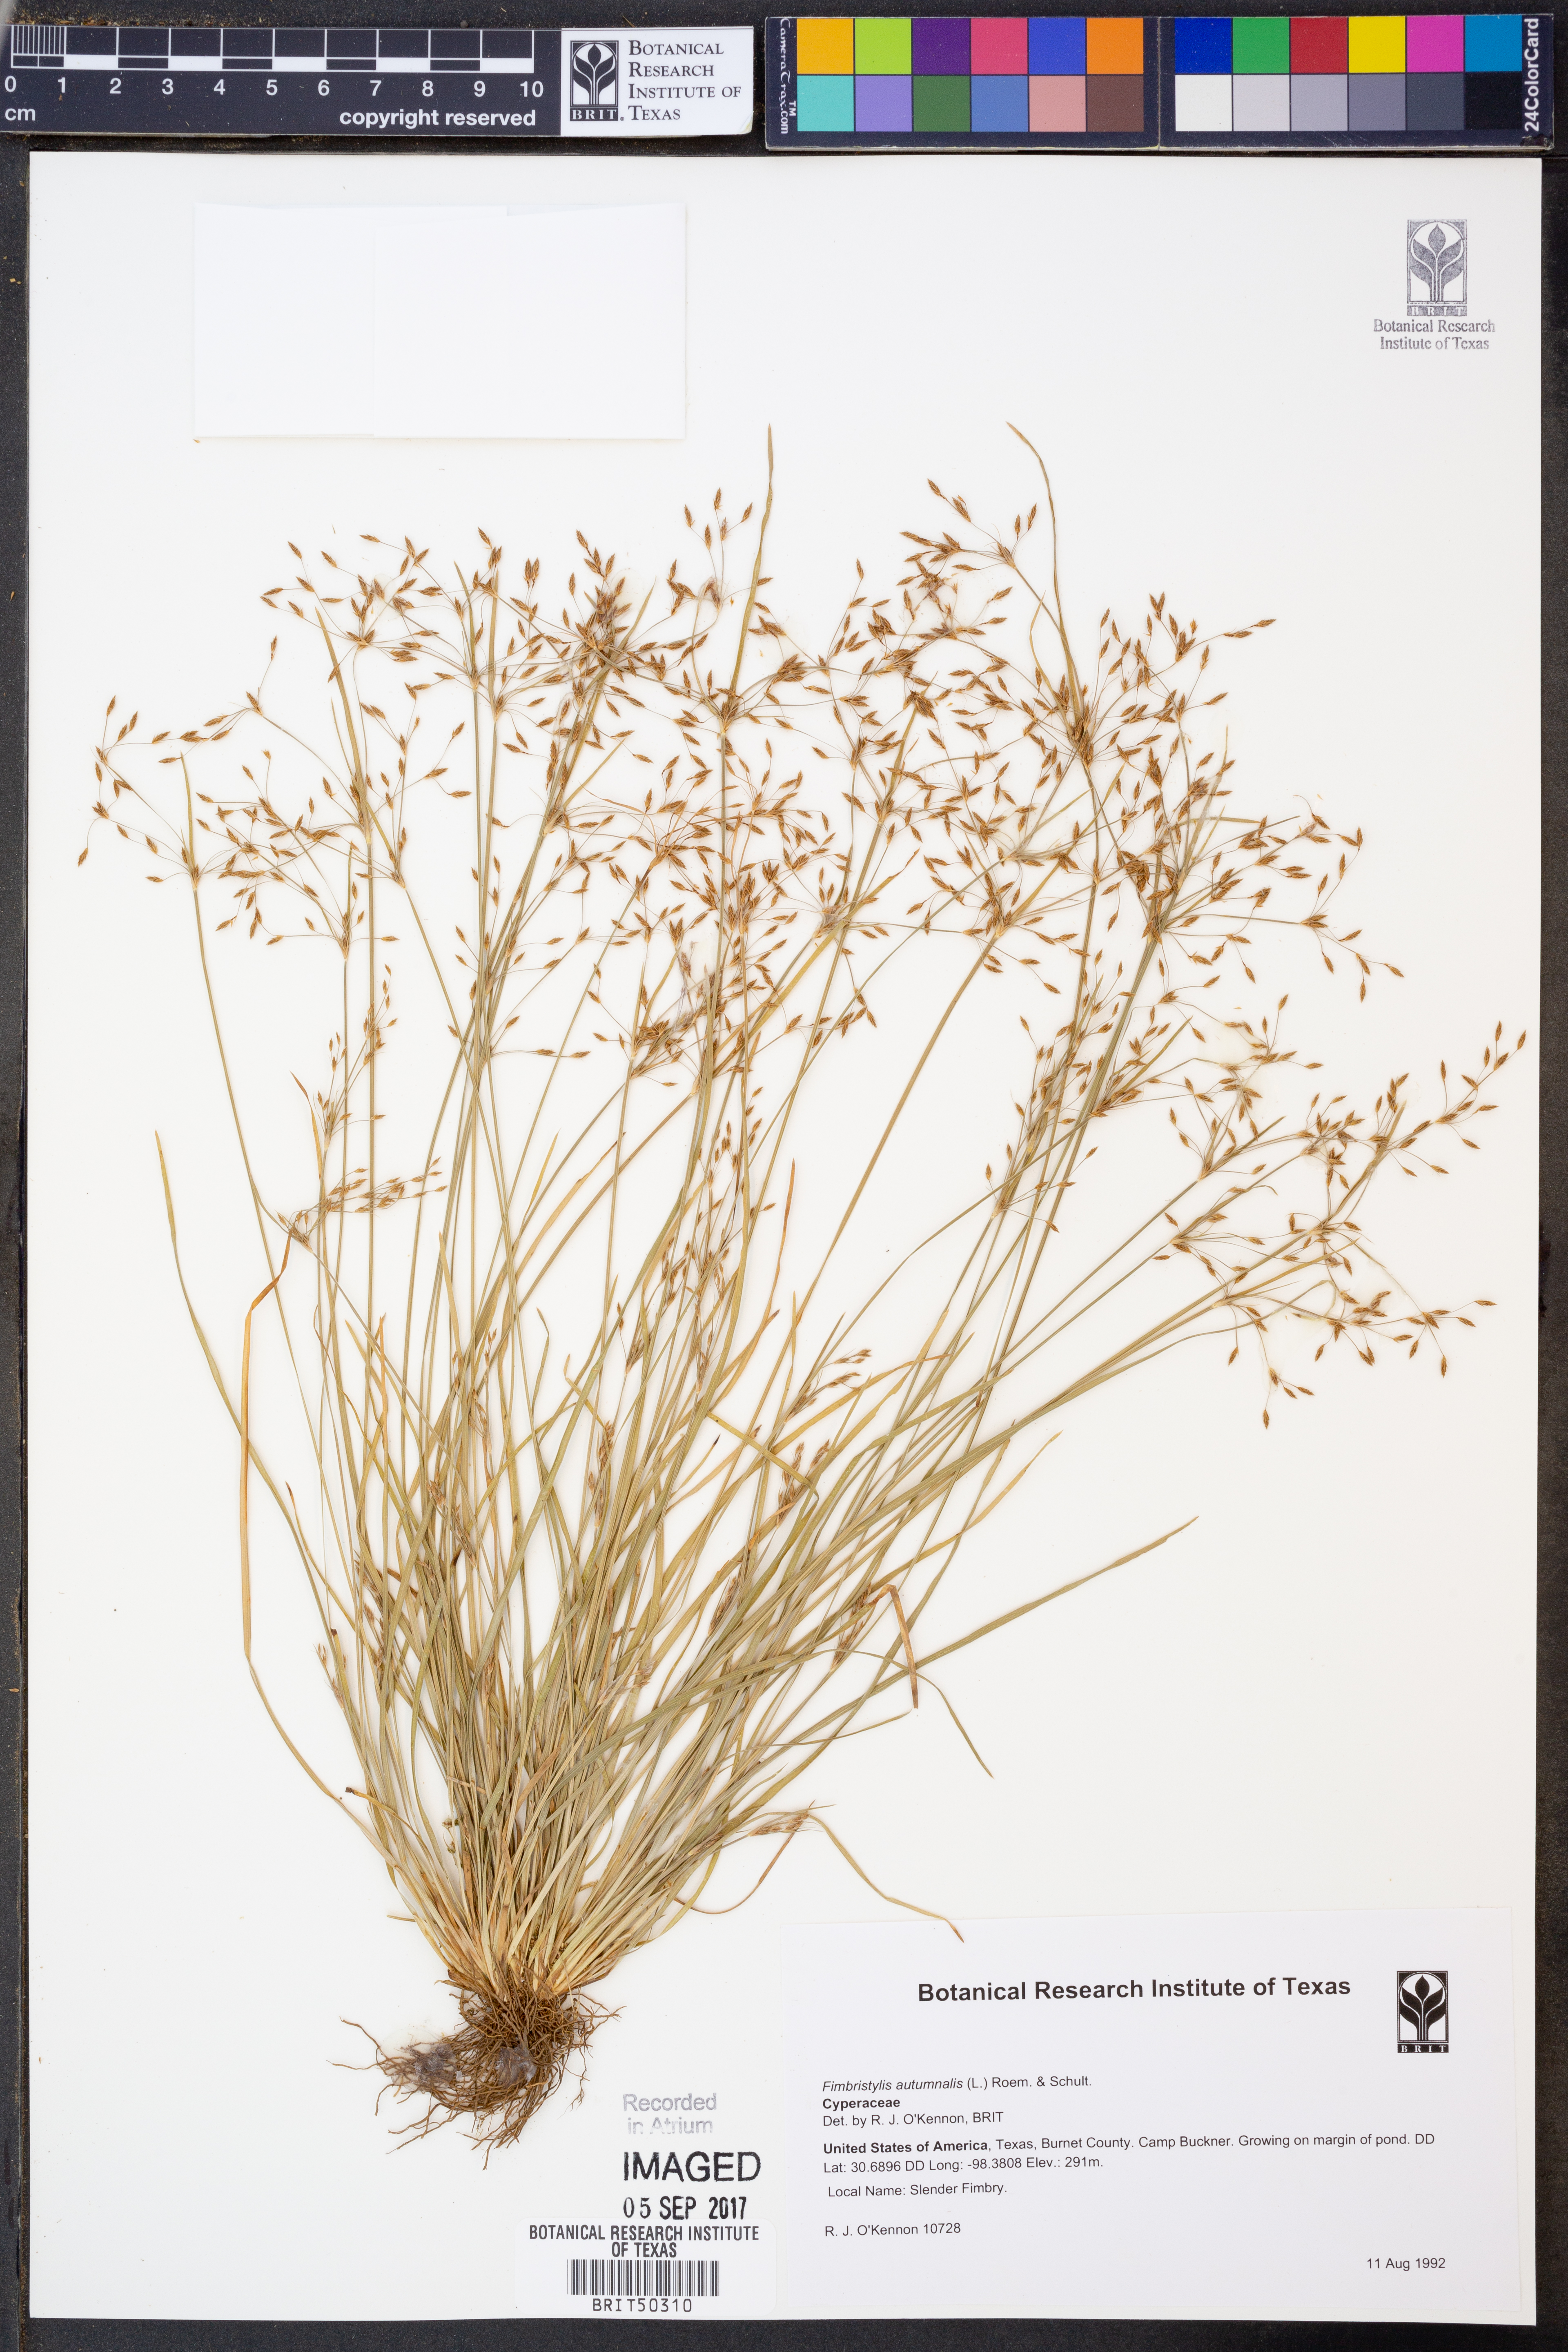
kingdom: Plantae
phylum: Tracheophyta
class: Liliopsida
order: Poales
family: Cyperaceae
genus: Fimbristylis
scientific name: Fimbristylis autumnalis
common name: Slender fimbristylis
